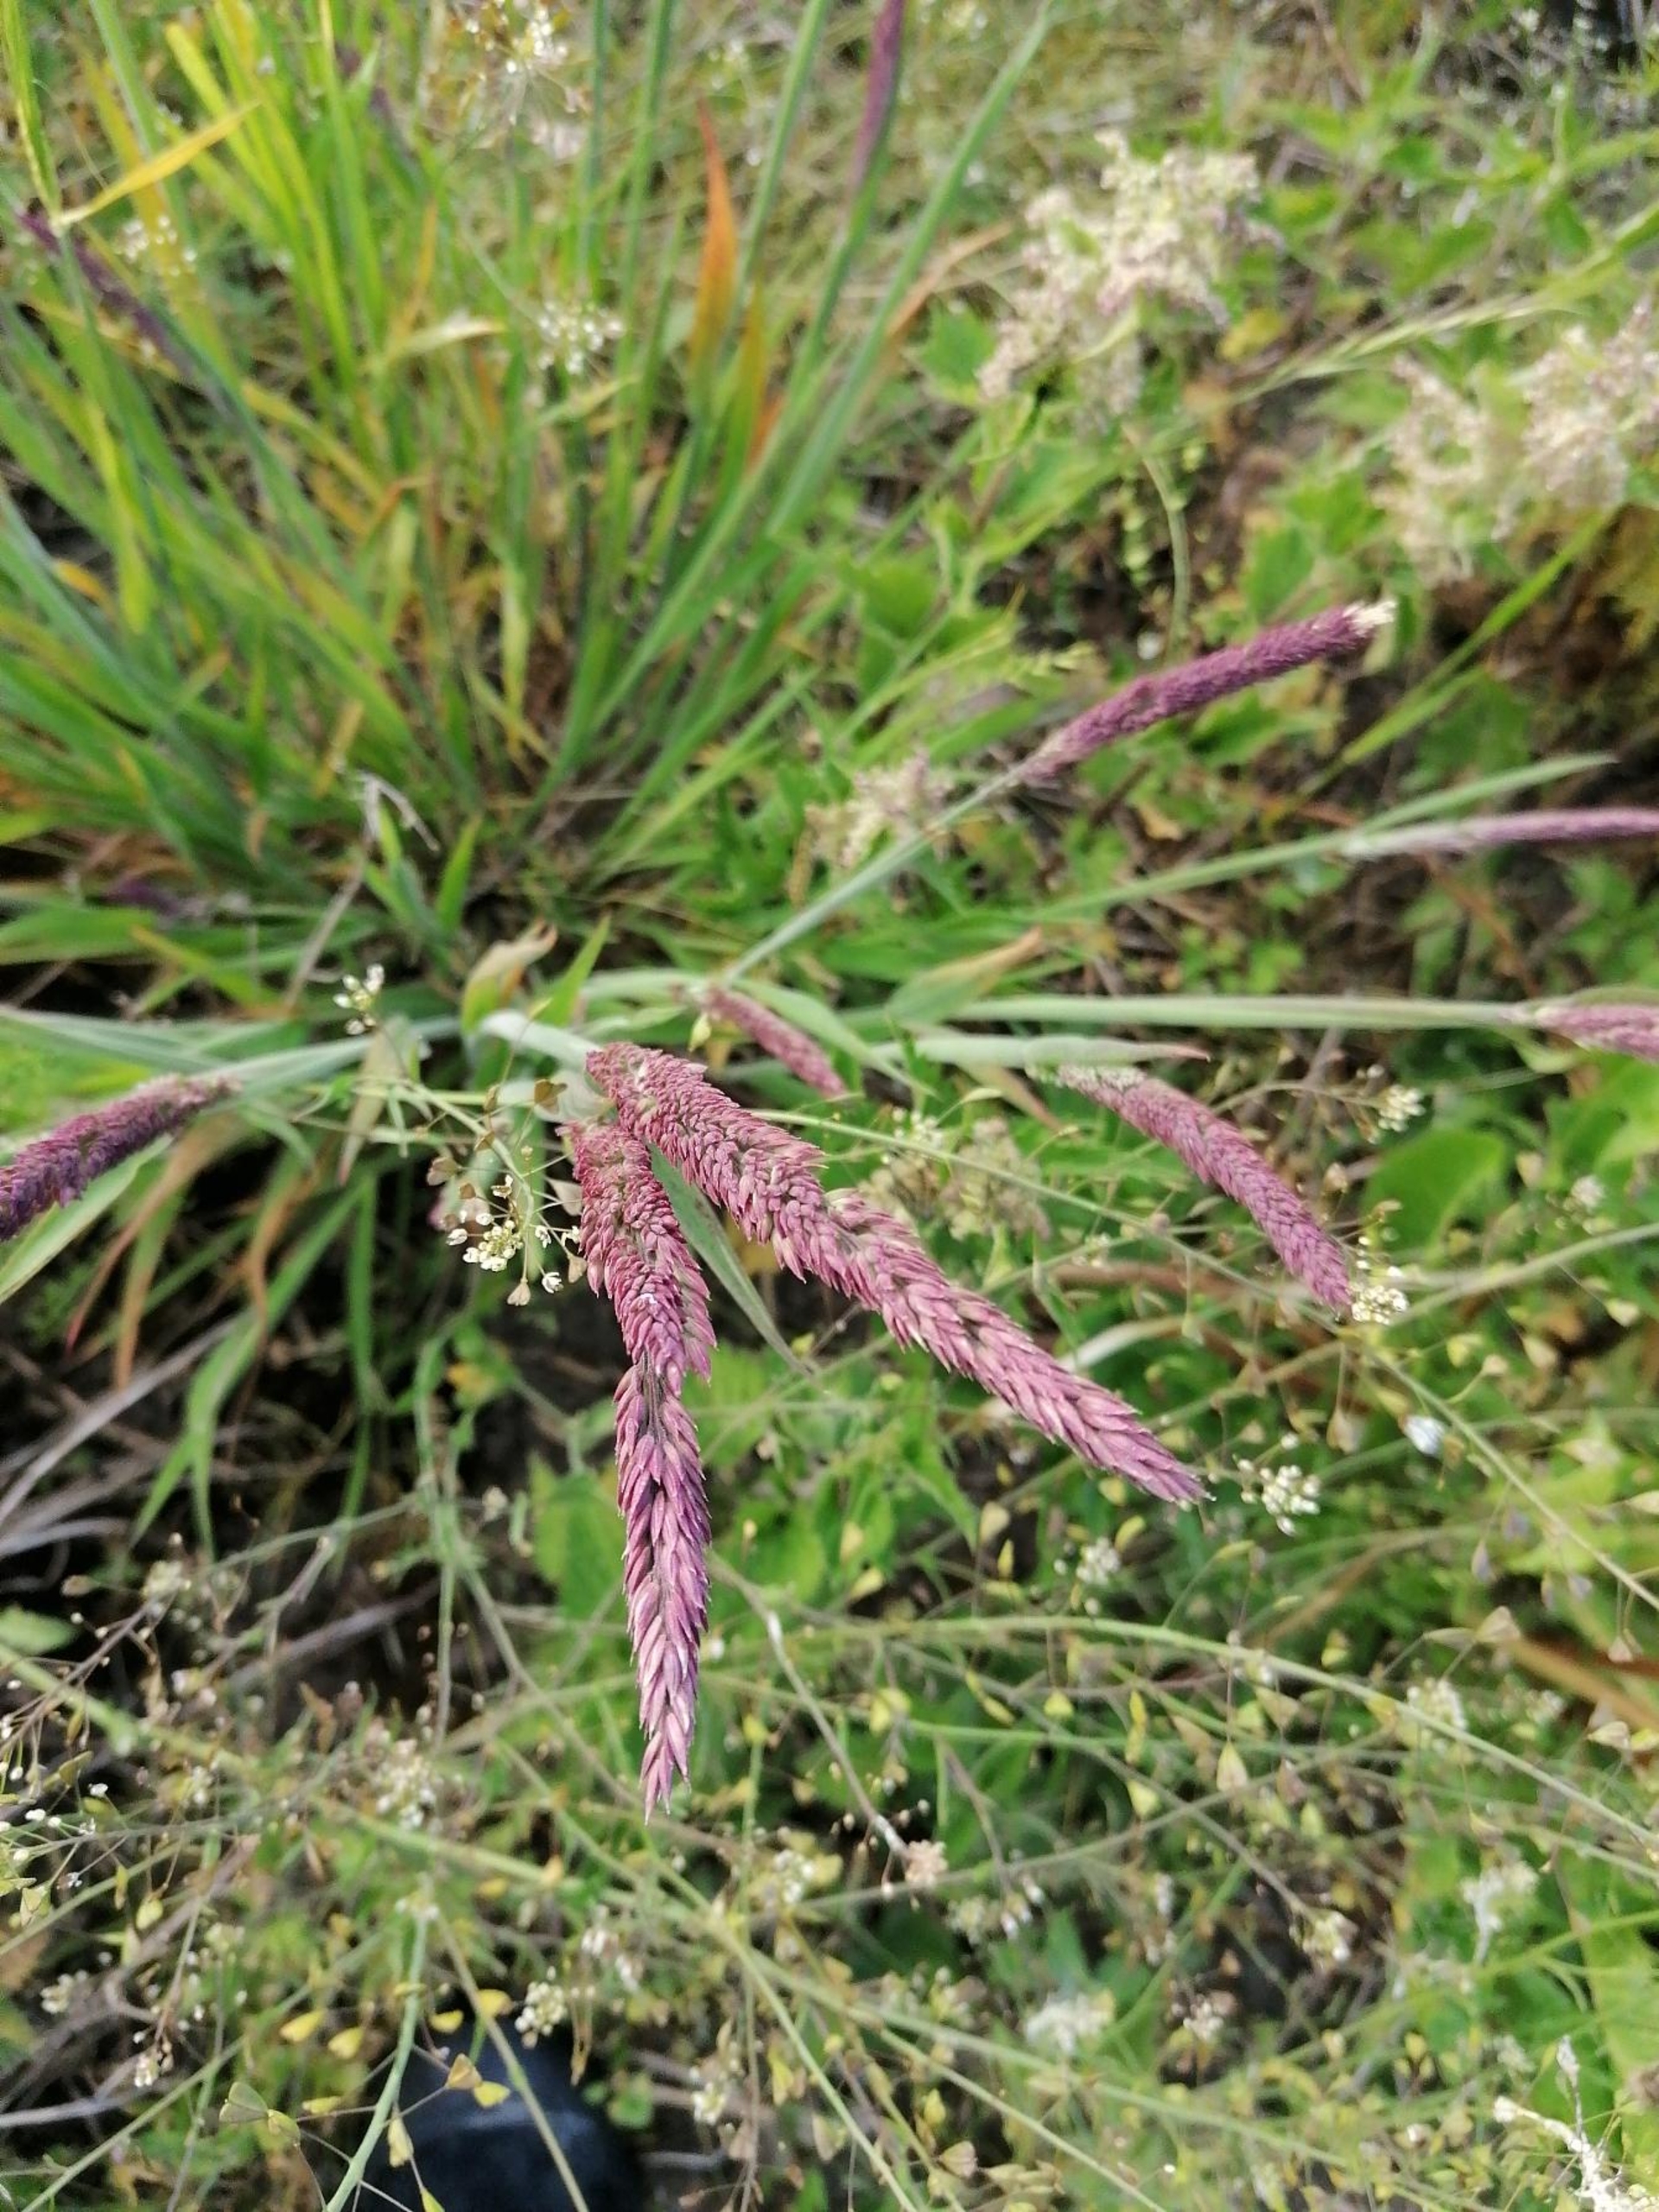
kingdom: Plantae
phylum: Tracheophyta
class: Liliopsida
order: Poales
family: Poaceae
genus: Holcus
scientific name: Holcus lanatus
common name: Fløjlsgræs
